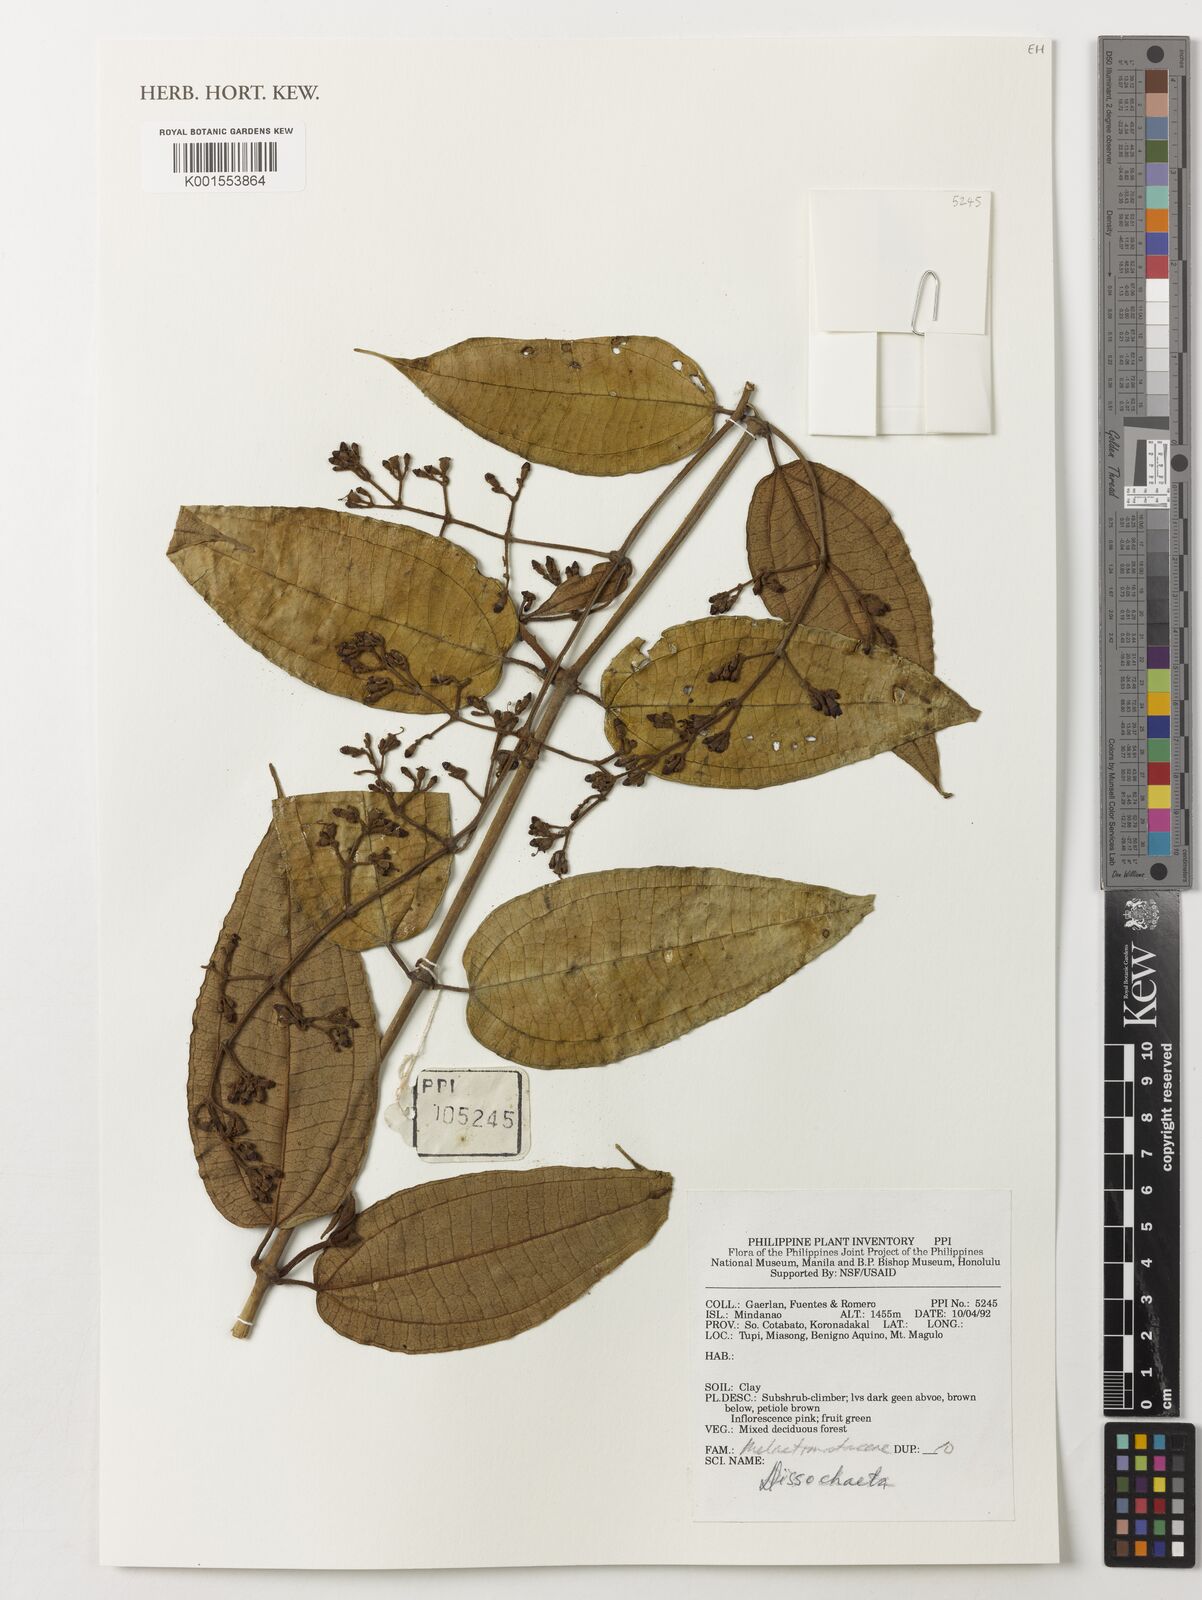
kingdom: Plantae
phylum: Tracheophyta
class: Magnoliopsida
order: Myrtales
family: Melastomataceae
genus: Dissochaeta
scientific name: Dissochaeta
